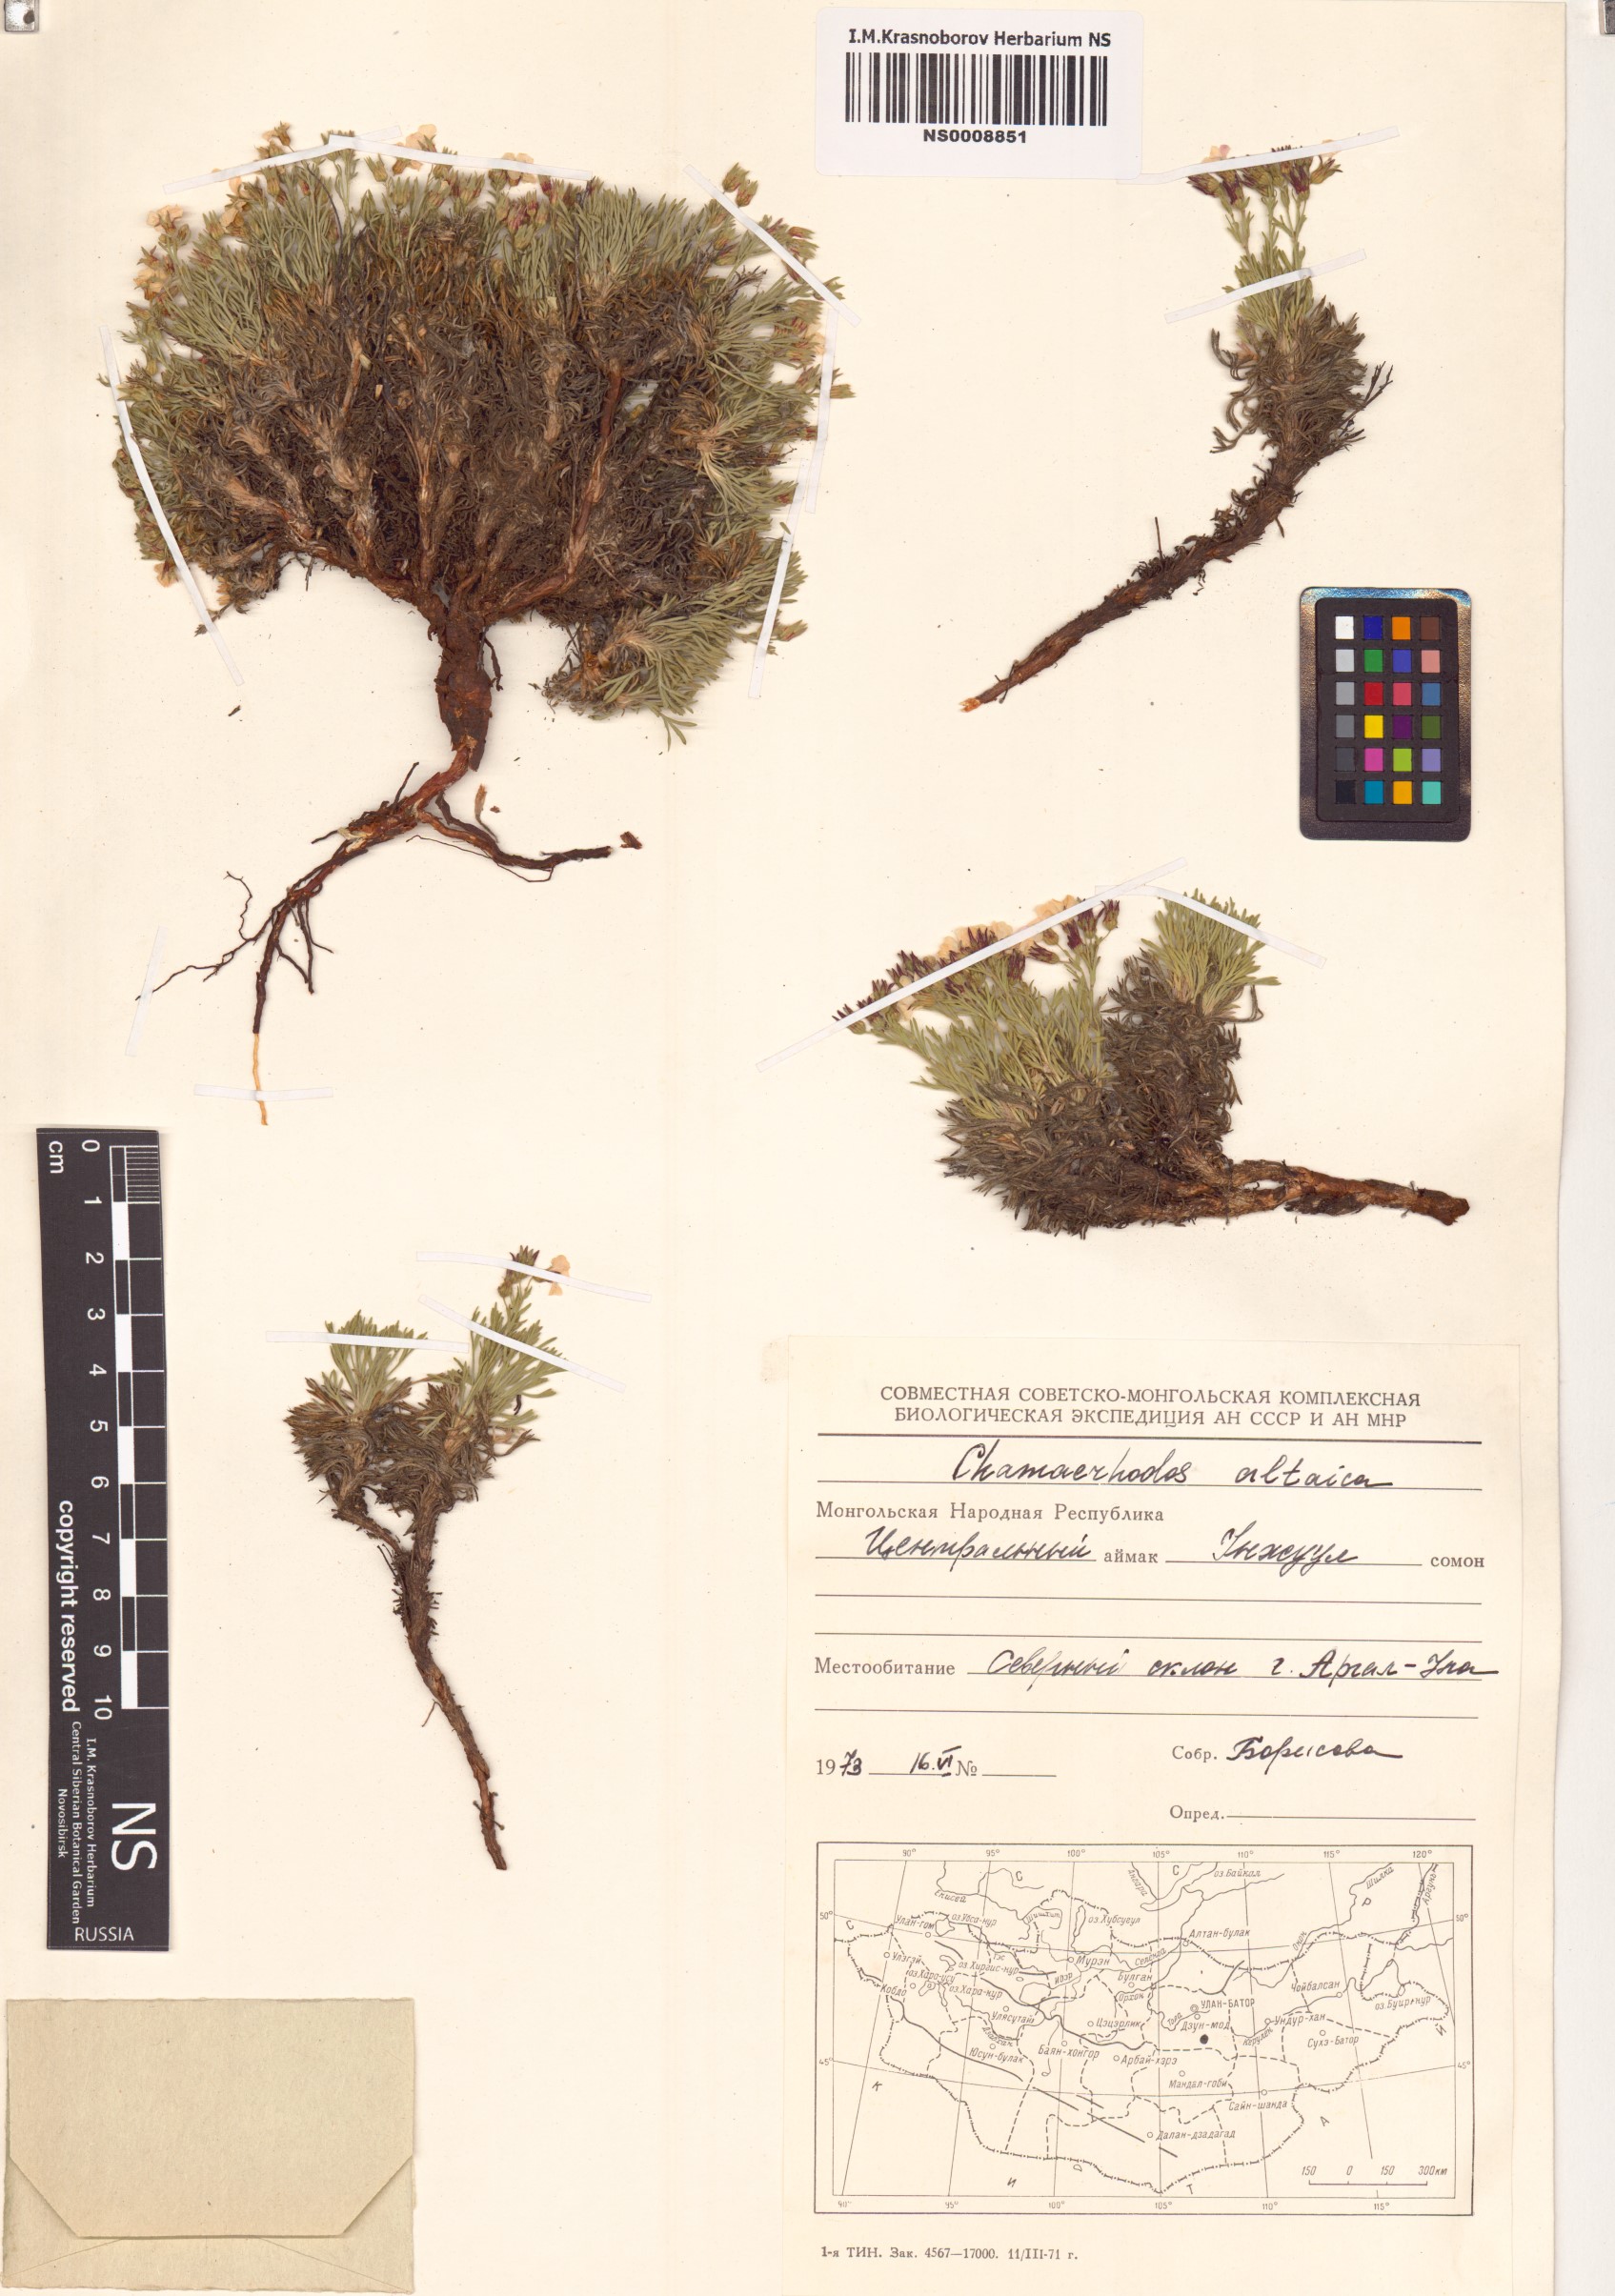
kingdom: Plantae
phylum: Tracheophyta
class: Magnoliopsida
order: Rosales
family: Rosaceae
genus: Chamaerhodos
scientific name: Chamaerhodos altaica
